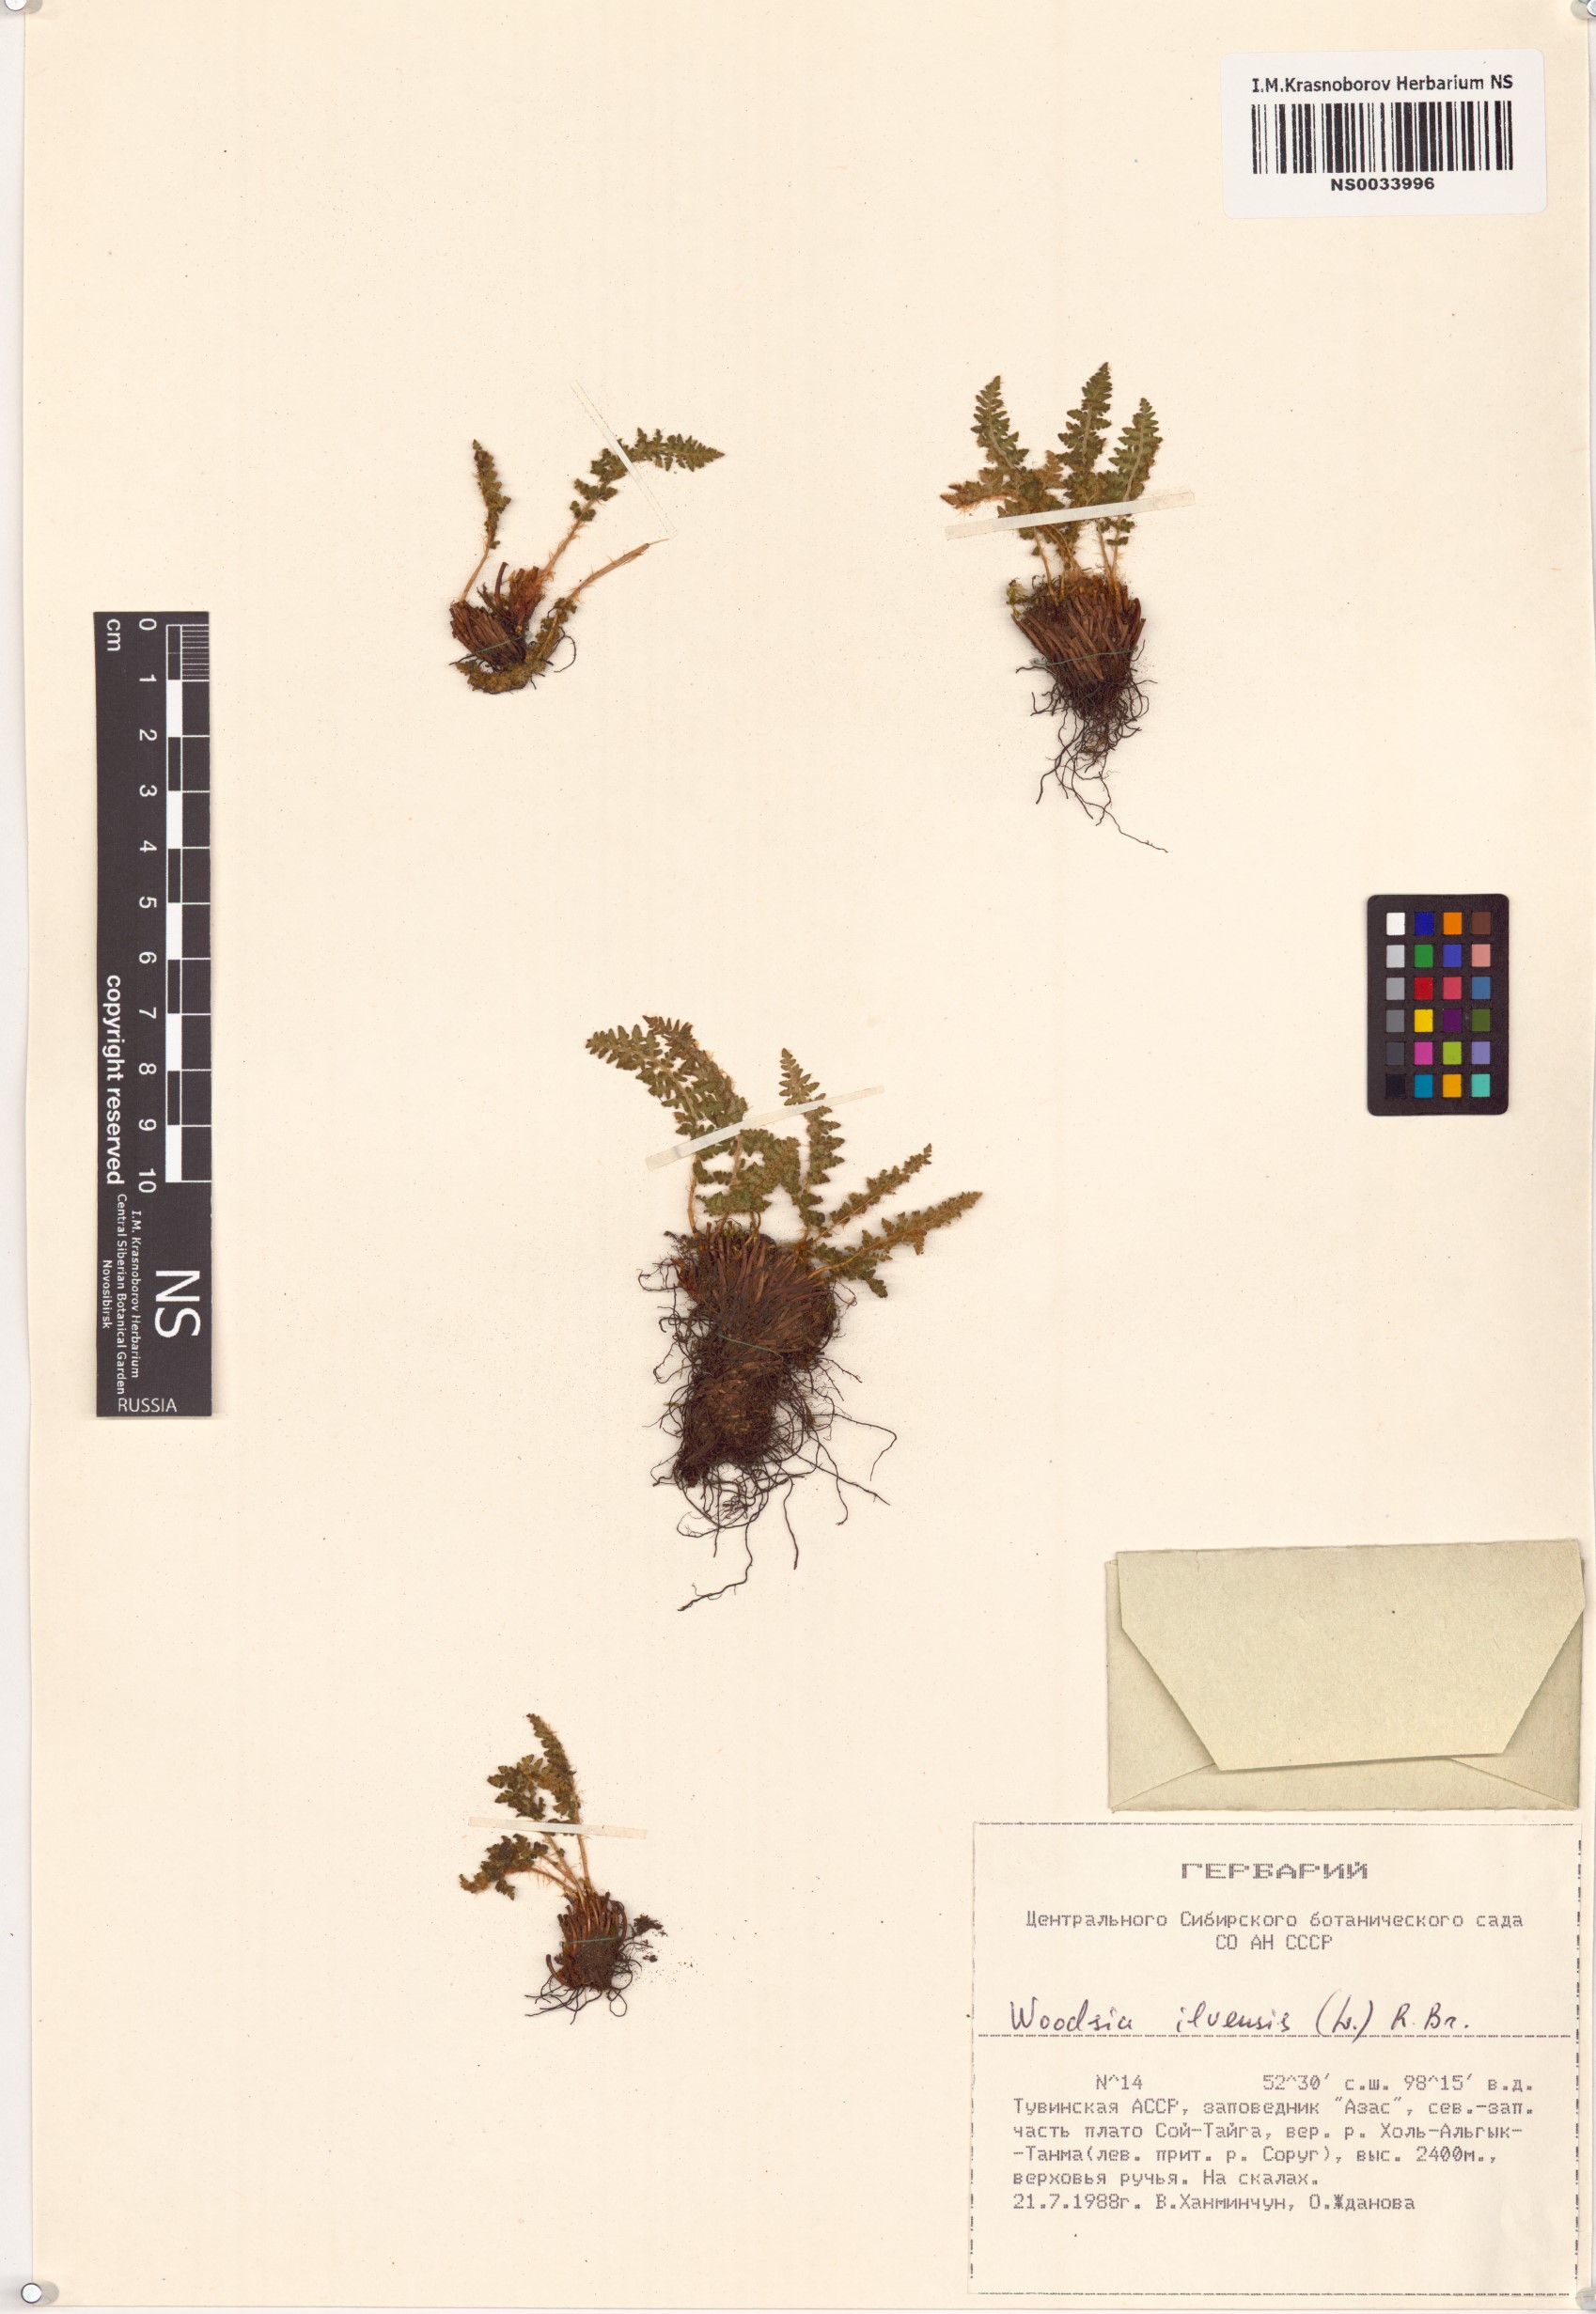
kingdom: Plantae
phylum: Tracheophyta
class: Polypodiopsida
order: Polypodiales
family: Woodsiaceae
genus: Woodsia
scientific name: Woodsia ilvensis
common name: Fragrant woodsia
